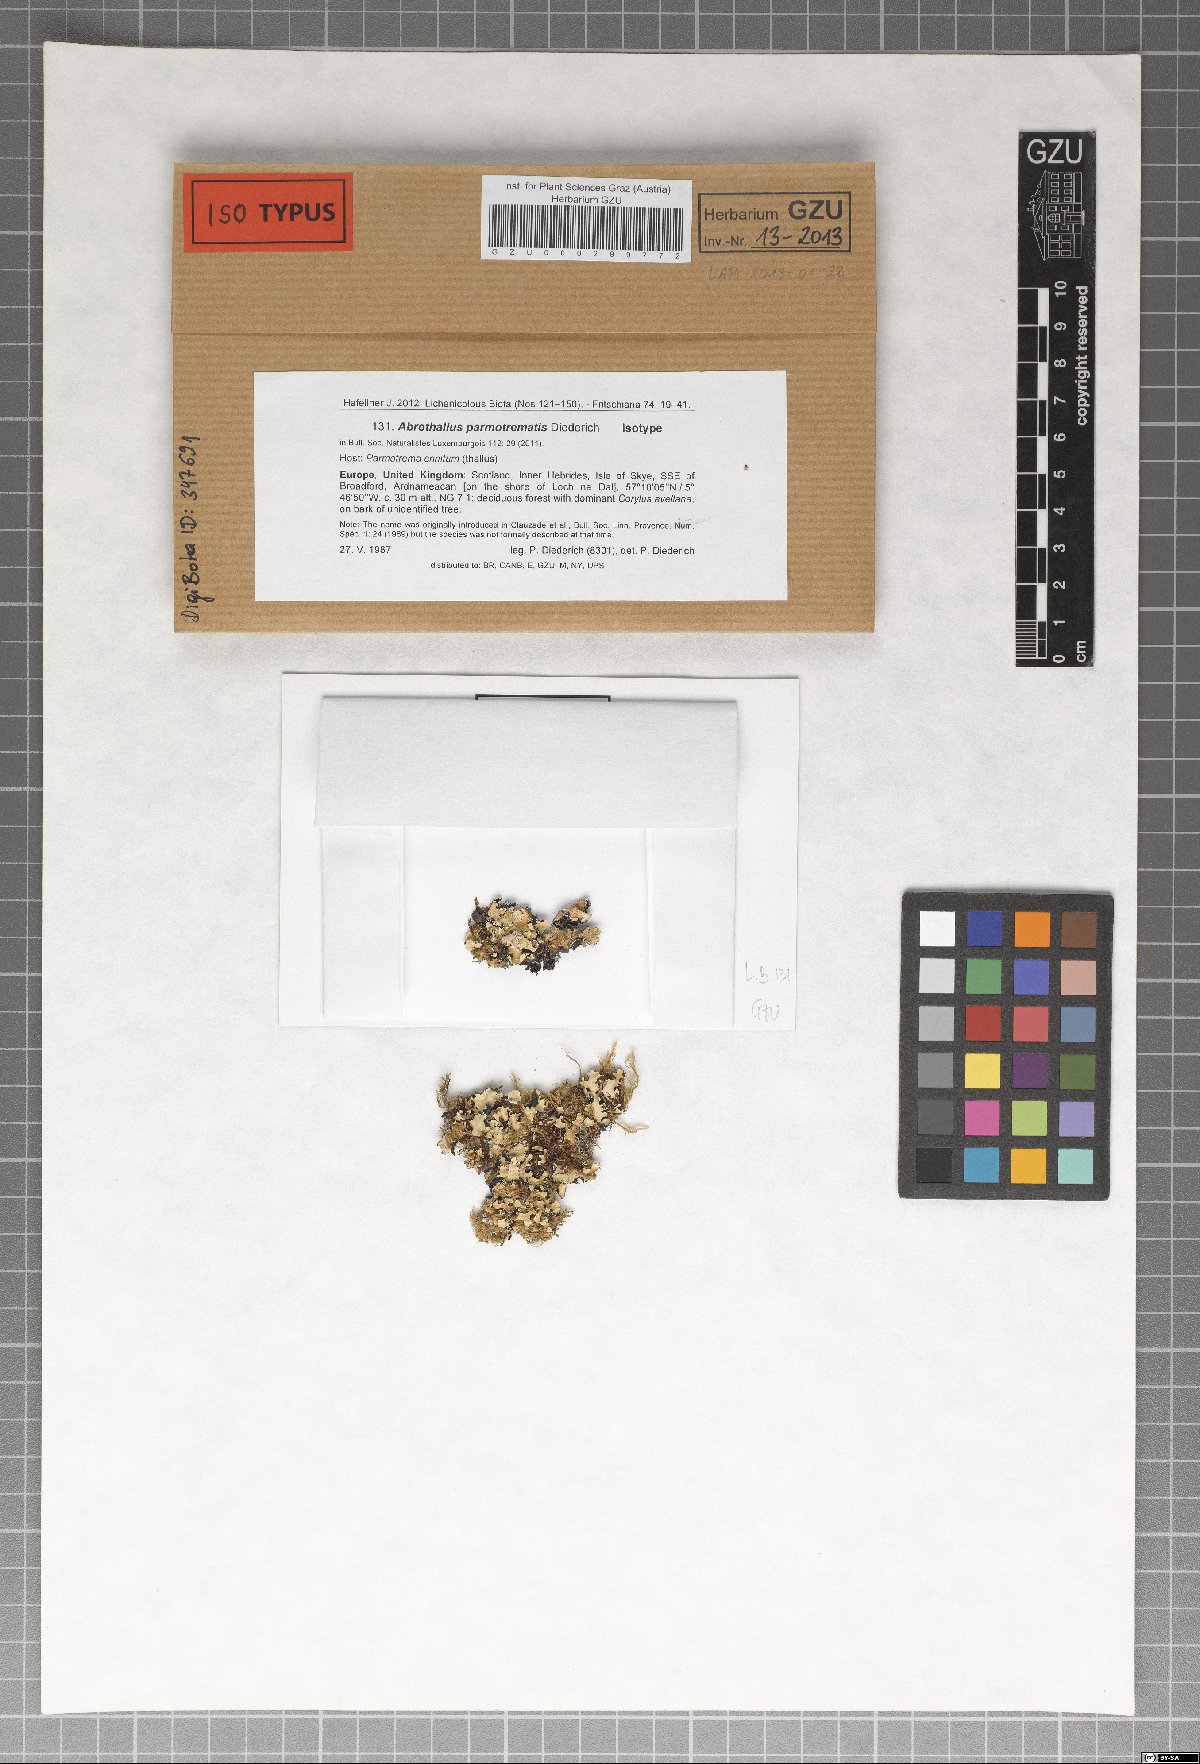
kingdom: Fungi
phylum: Ascomycota
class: Dothideomycetes
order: Abrothallales
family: Abrothallaceae
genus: Abrothallus
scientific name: Abrothallus parmotrematis
